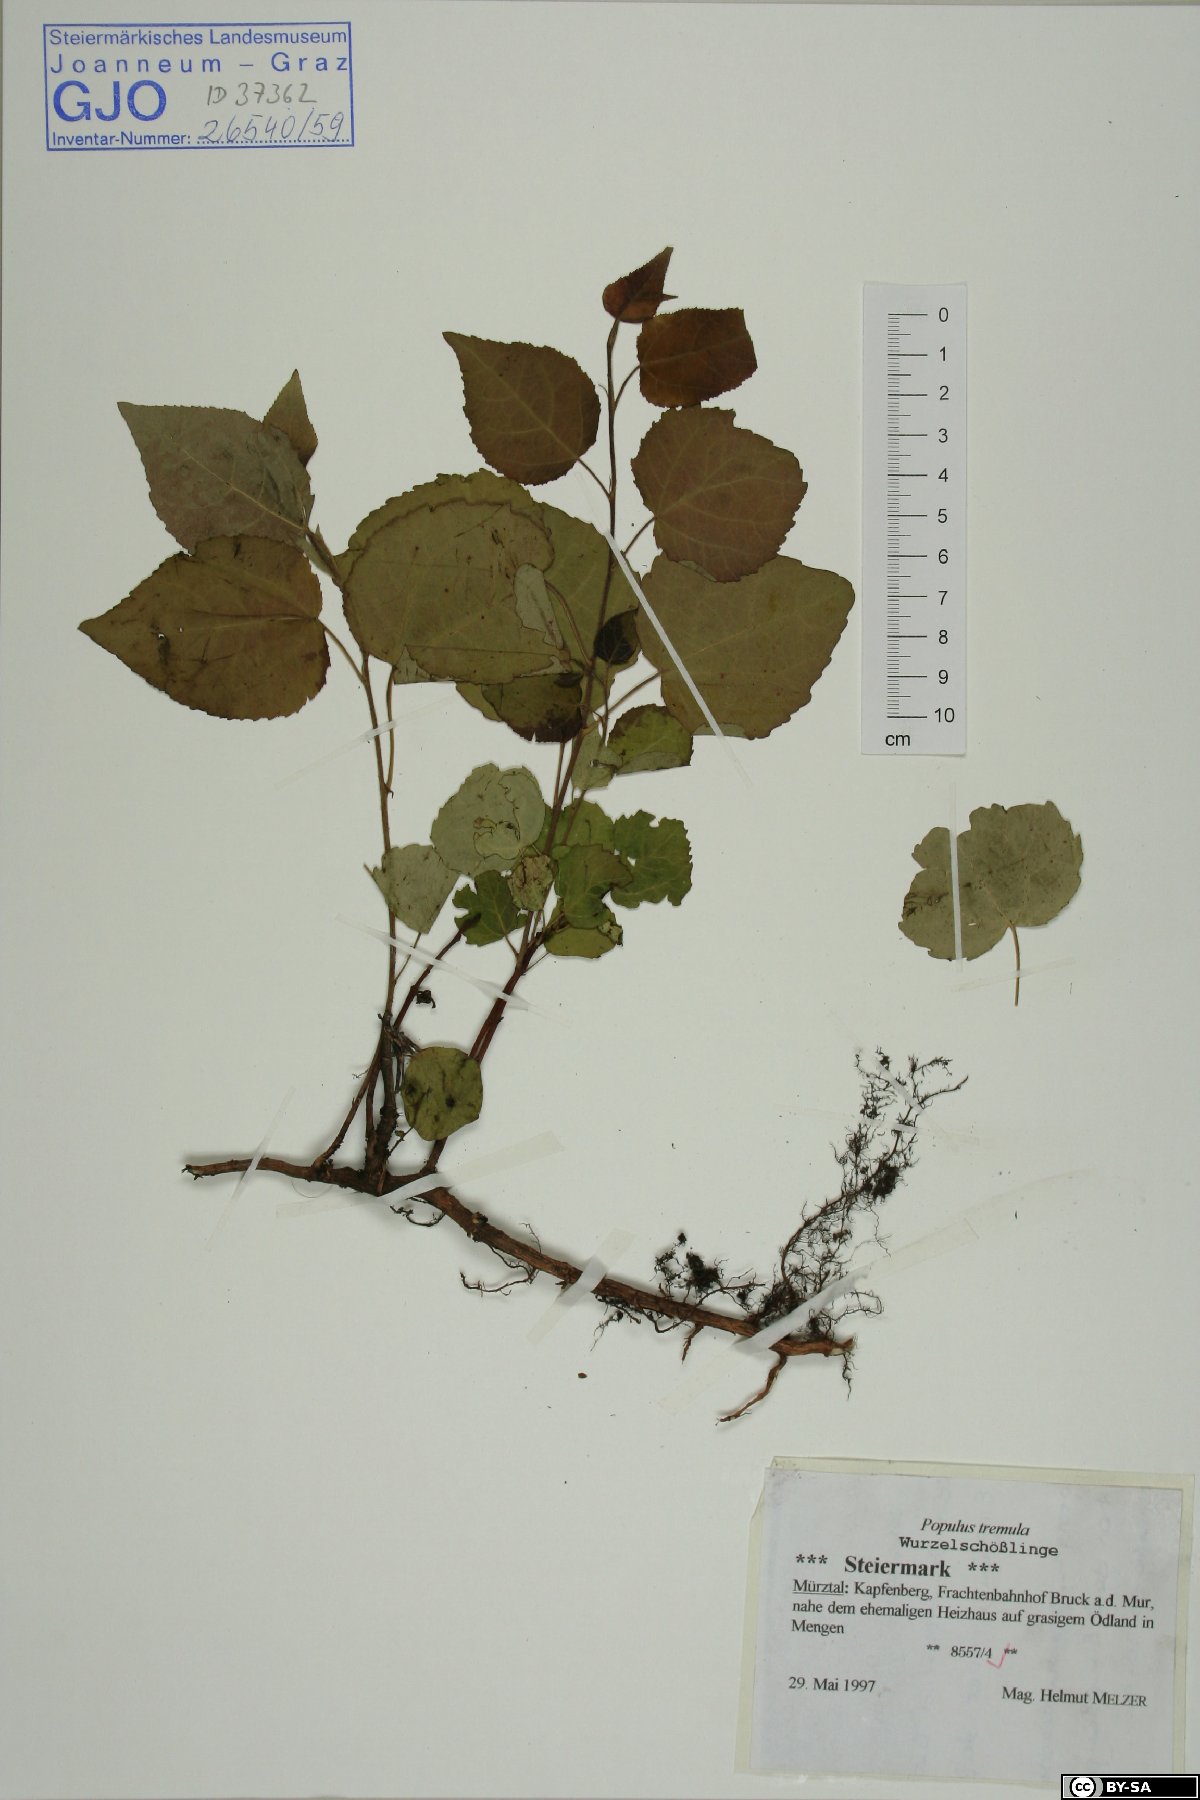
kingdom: Plantae
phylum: Tracheophyta
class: Magnoliopsida
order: Malpighiales
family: Salicaceae
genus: Populus
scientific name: Populus tremula
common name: European aspen
